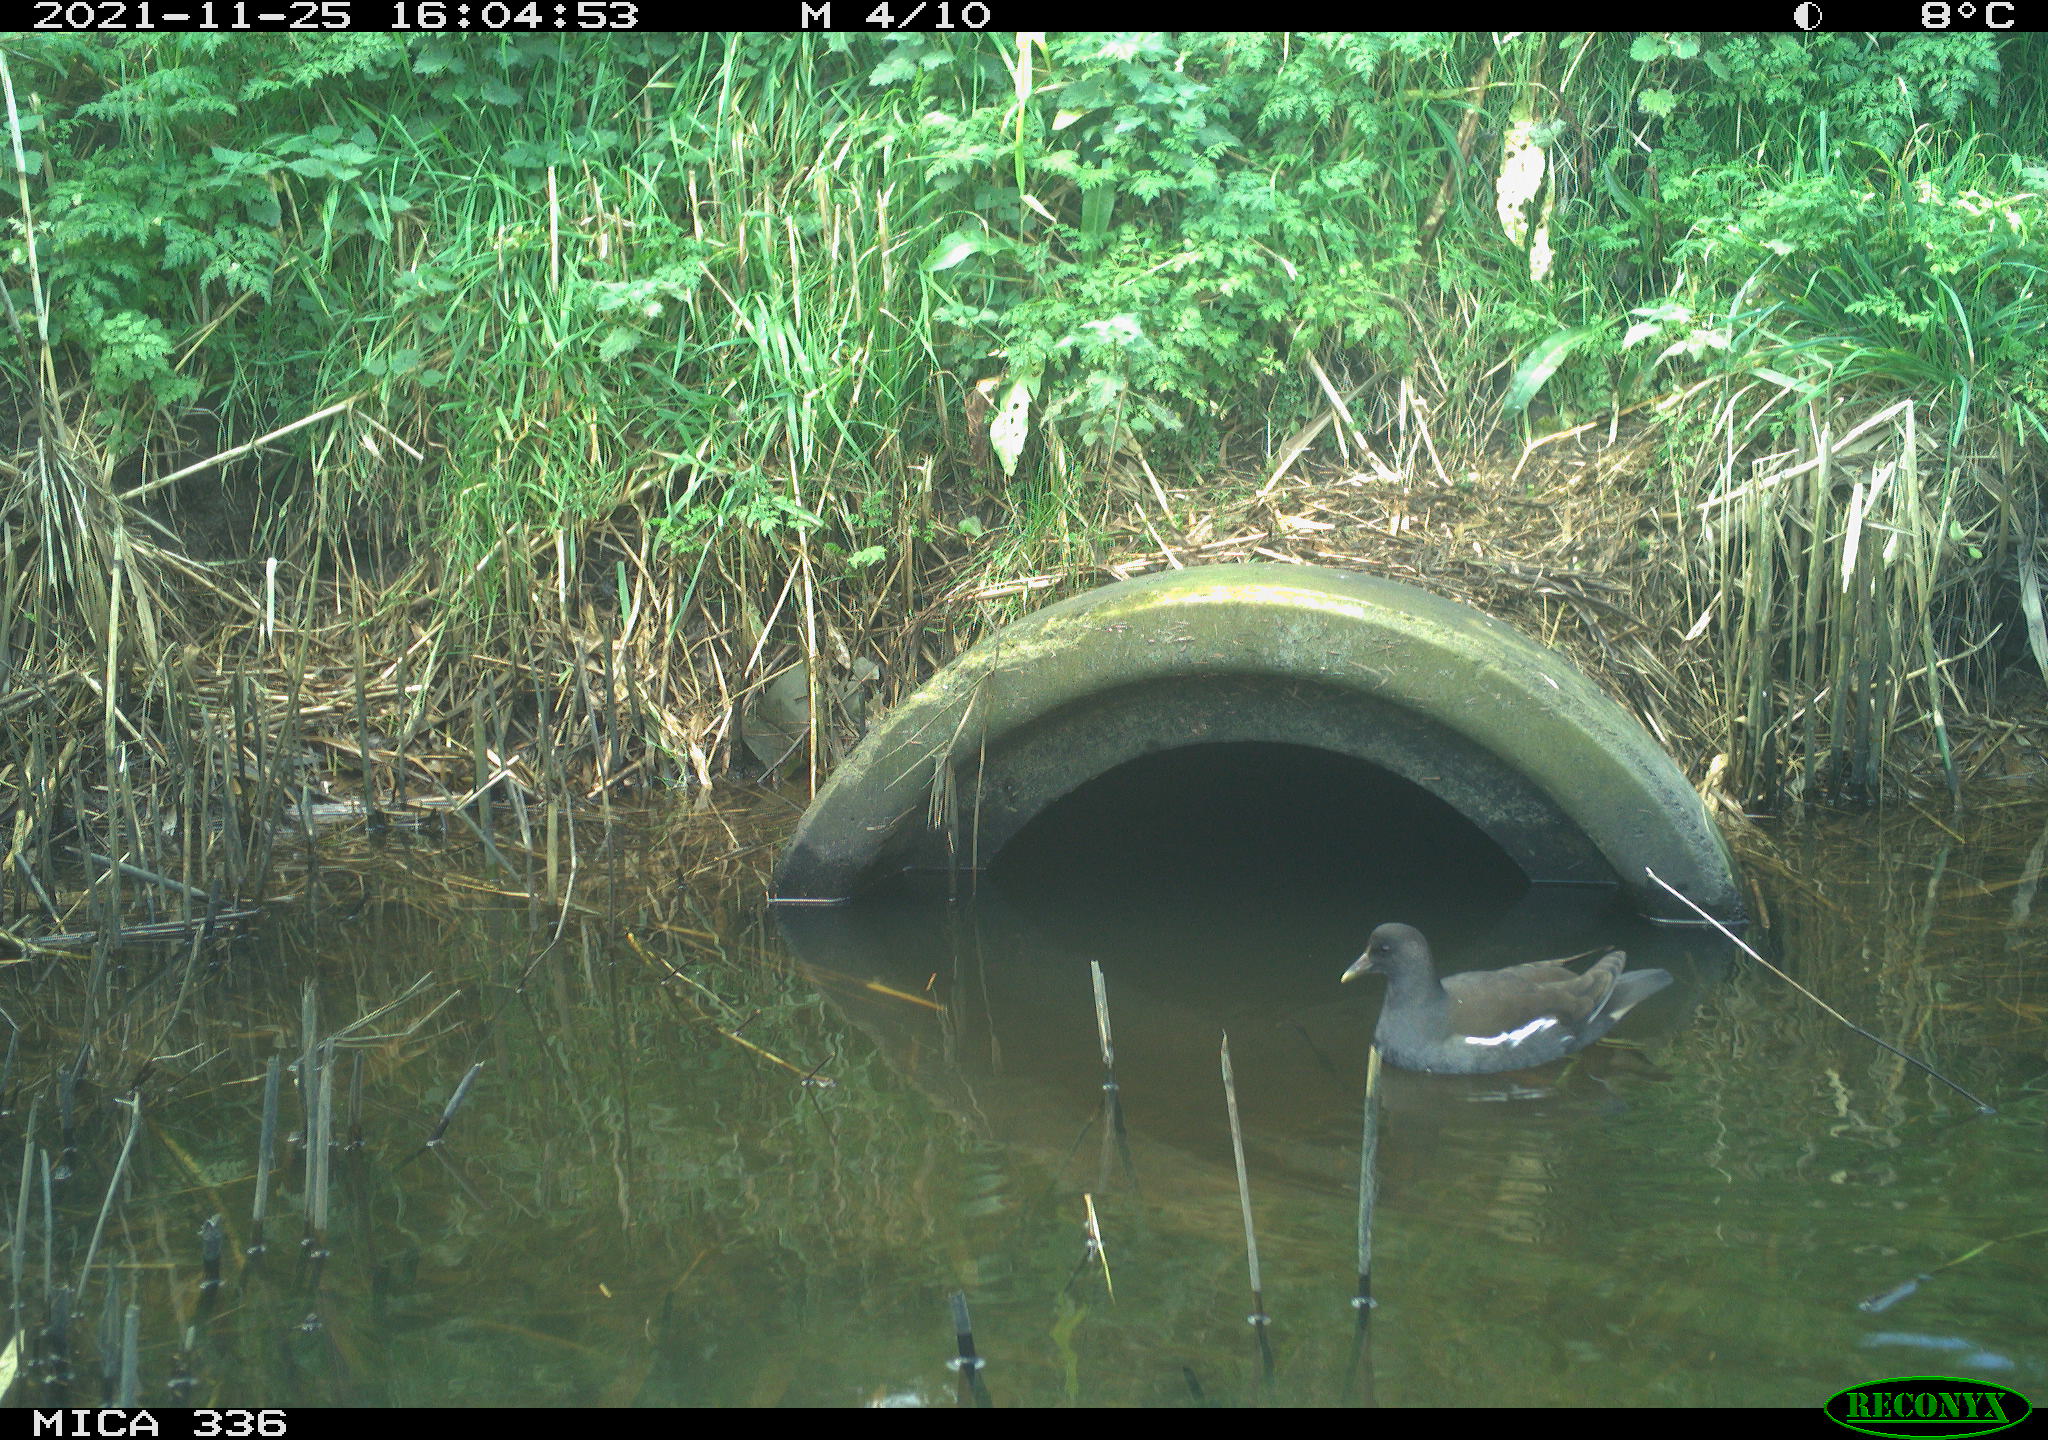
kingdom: Animalia
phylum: Chordata
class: Aves
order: Gruiformes
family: Rallidae
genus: Gallinula
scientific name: Gallinula chloropus
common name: Common moorhen
